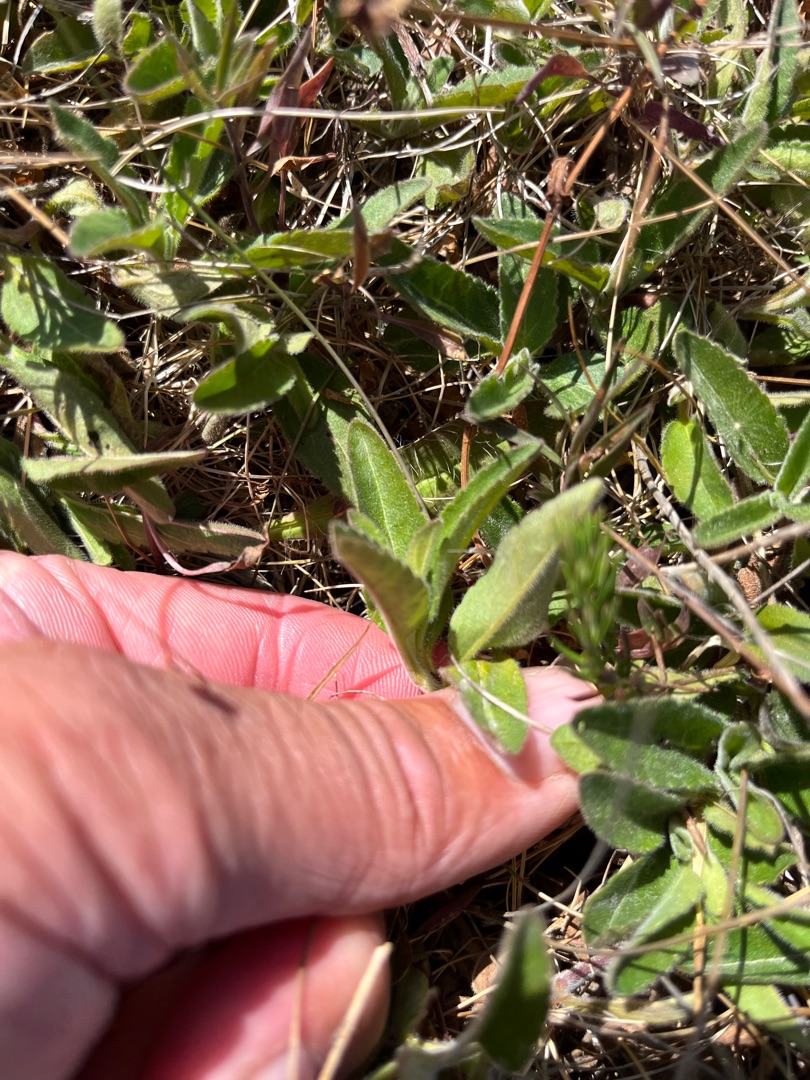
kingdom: Plantae
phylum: Tracheophyta
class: Magnoliopsida
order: Lamiales
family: Plantaginaceae
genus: Veronica
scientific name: Veronica spicata
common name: Aks-ærenpris
